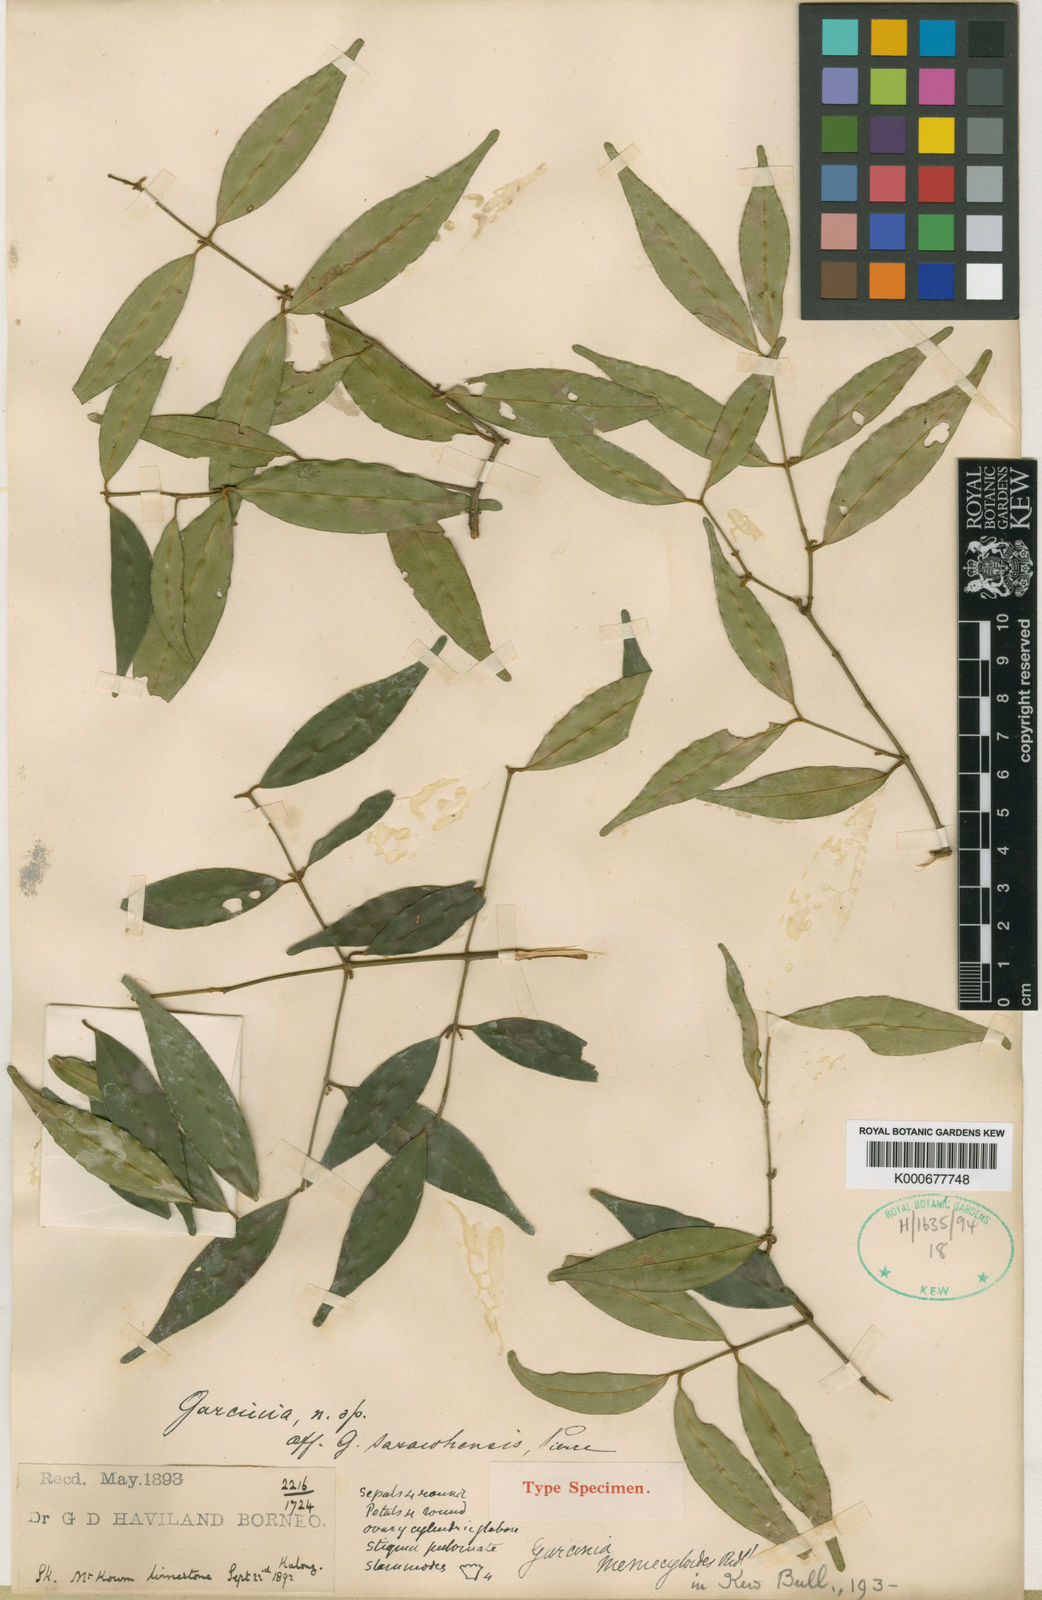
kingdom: Plantae
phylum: Tracheophyta
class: Magnoliopsida
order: Malpighiales
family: Clusiaceae
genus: Garcinia
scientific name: Garcinia memecyloides
